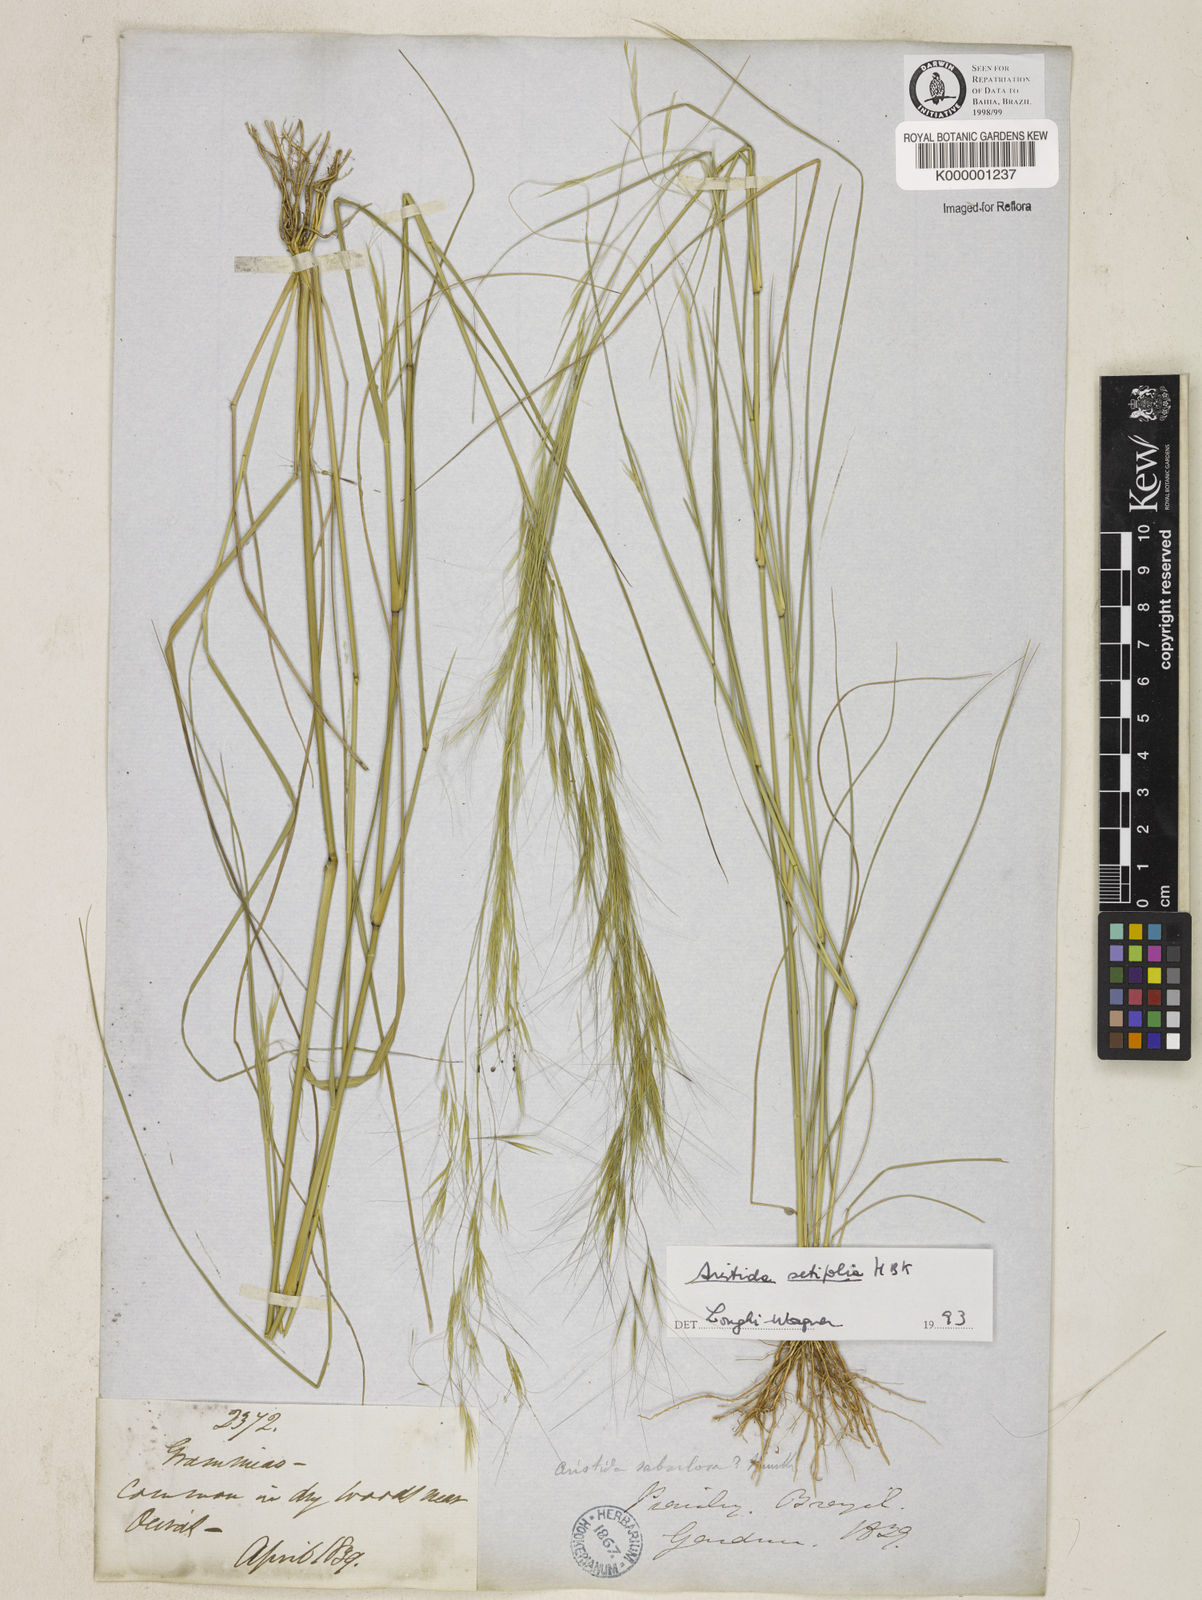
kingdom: Plantae
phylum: Tracheophyta
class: Liliopsida
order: Poales
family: Poaceae
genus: Aristida
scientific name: Aristida setifolia
